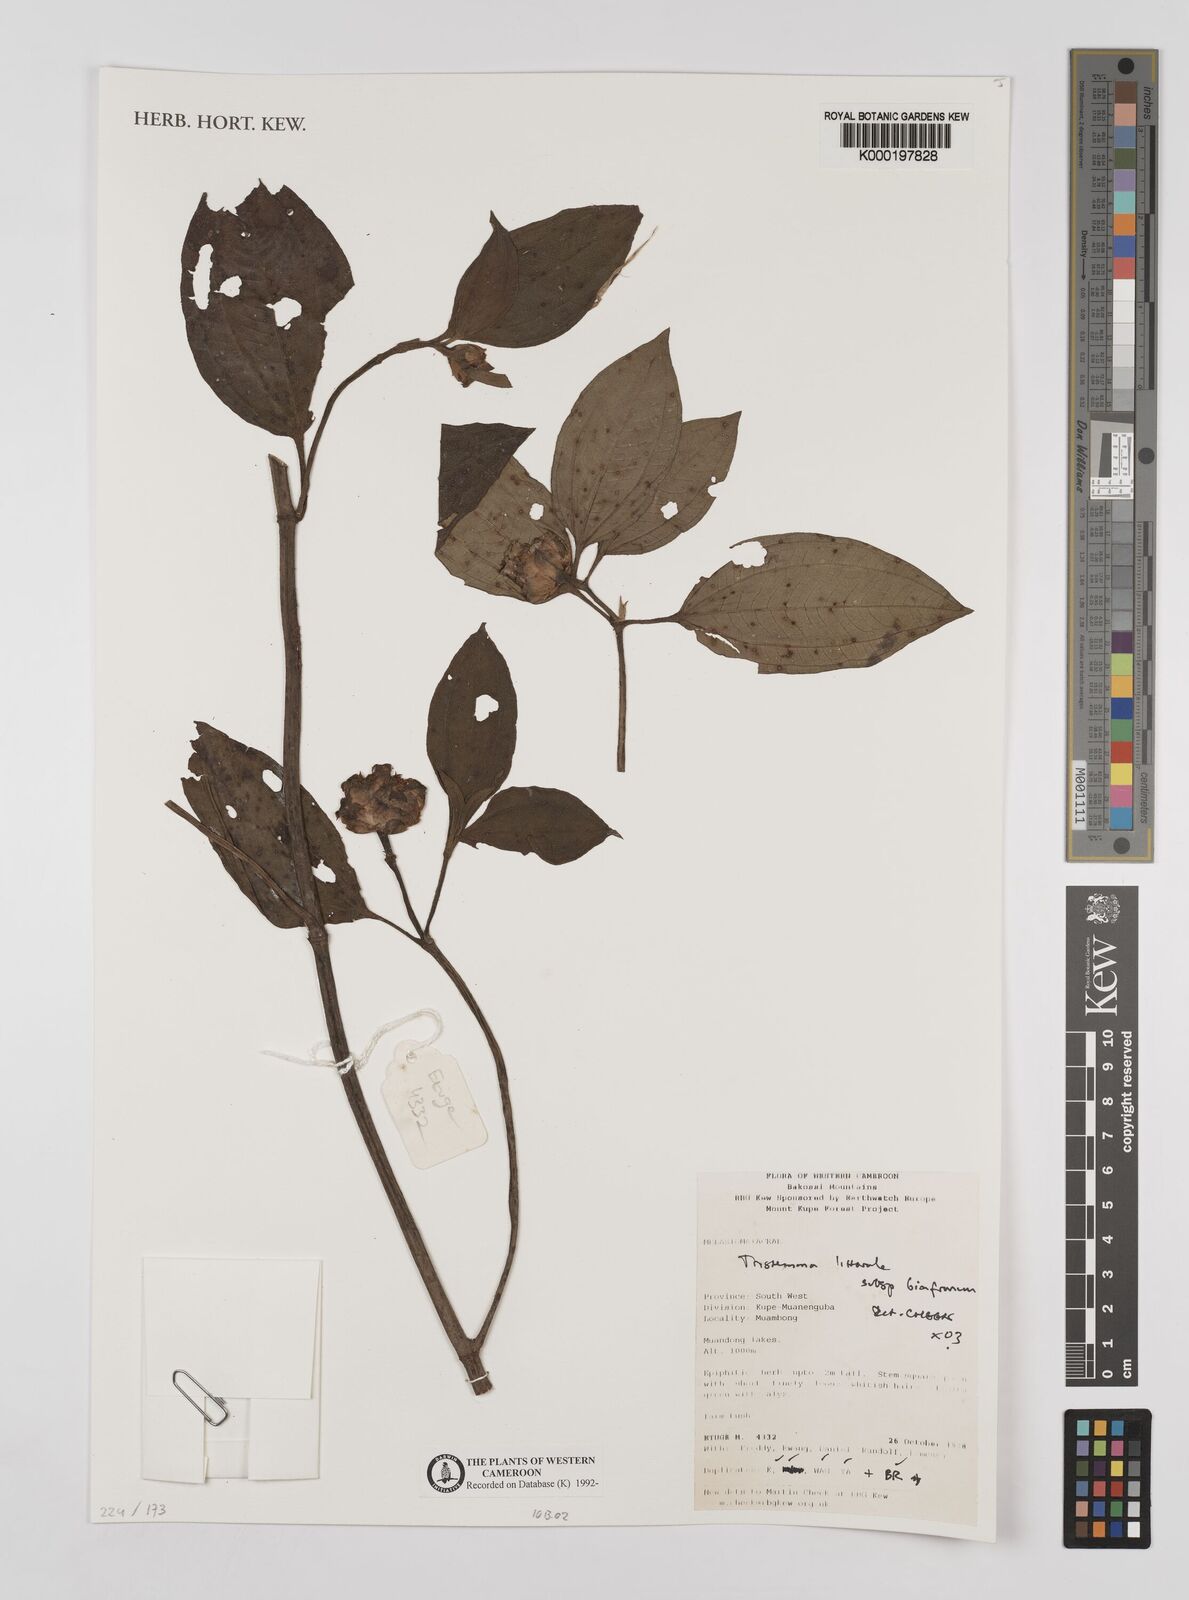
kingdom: Plantae
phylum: Tracheophyta
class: Magnoliopsida
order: Myrtales
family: Melastomataceae
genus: Tristemma
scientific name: Tristemma littorale
